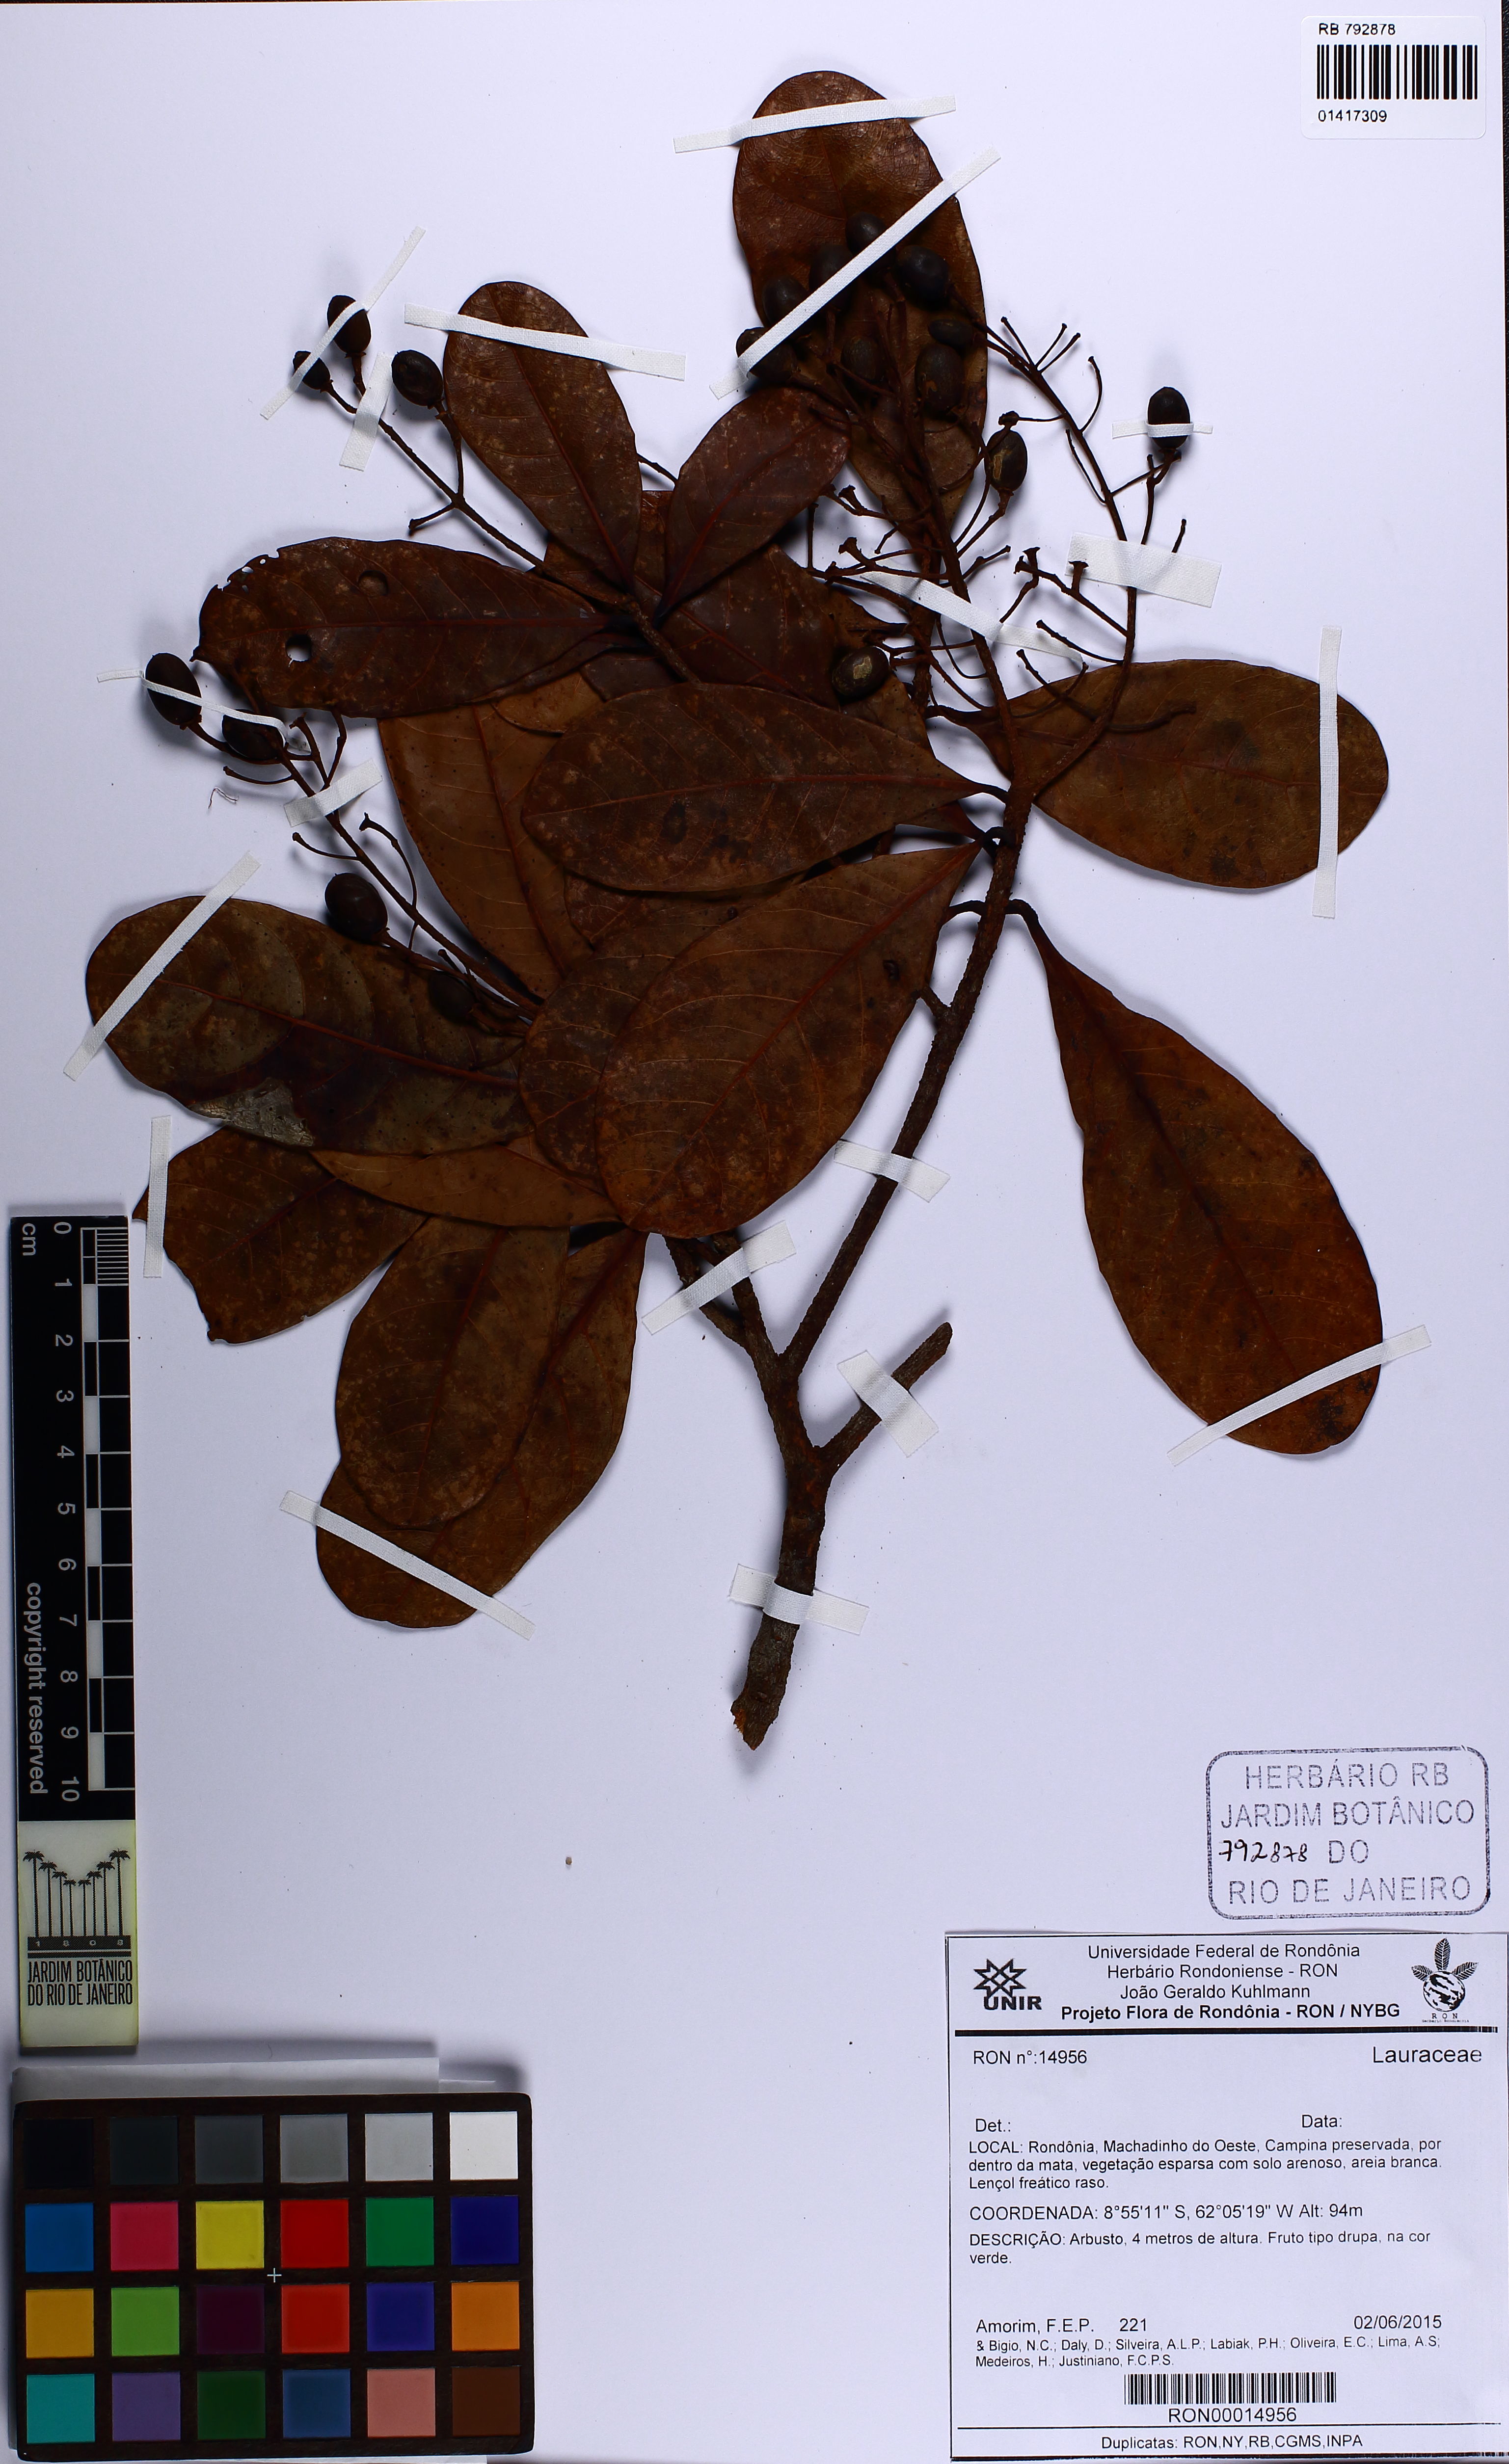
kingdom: Plantae
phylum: Tracheophyta
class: Magnoliopsida
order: Laurales
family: Lauraceae
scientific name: Lauraceae
